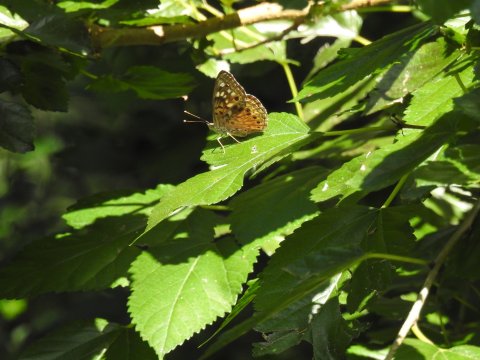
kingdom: Animalia
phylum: Arthropoda
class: Insecta
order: Lepidoptera
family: Nymphalidae
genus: Asterocampa
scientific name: Asterocampa celtis
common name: Hackberry Emperor
